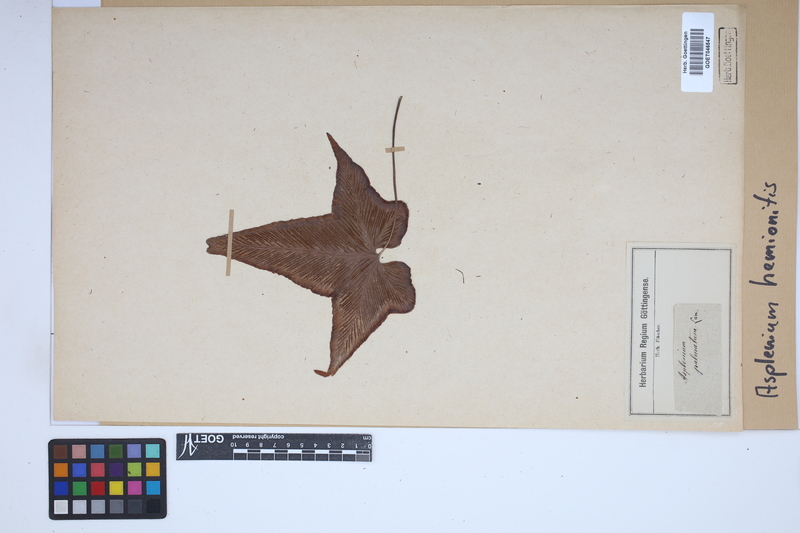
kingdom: Plantae
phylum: Tracheophyta
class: Polypodiopsida
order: Polypodiales
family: Aspleniaceae
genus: Asplenium
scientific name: Asplenium hemionitis
